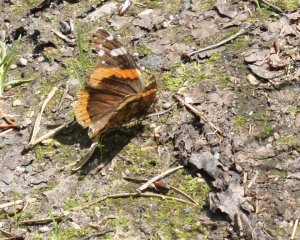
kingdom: Animalia
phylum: Arthropoda
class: Insecta
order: Lepidoptera
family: Nymphalidae
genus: Vanessa
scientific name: Vanessa atalanta
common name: Red Admiral
